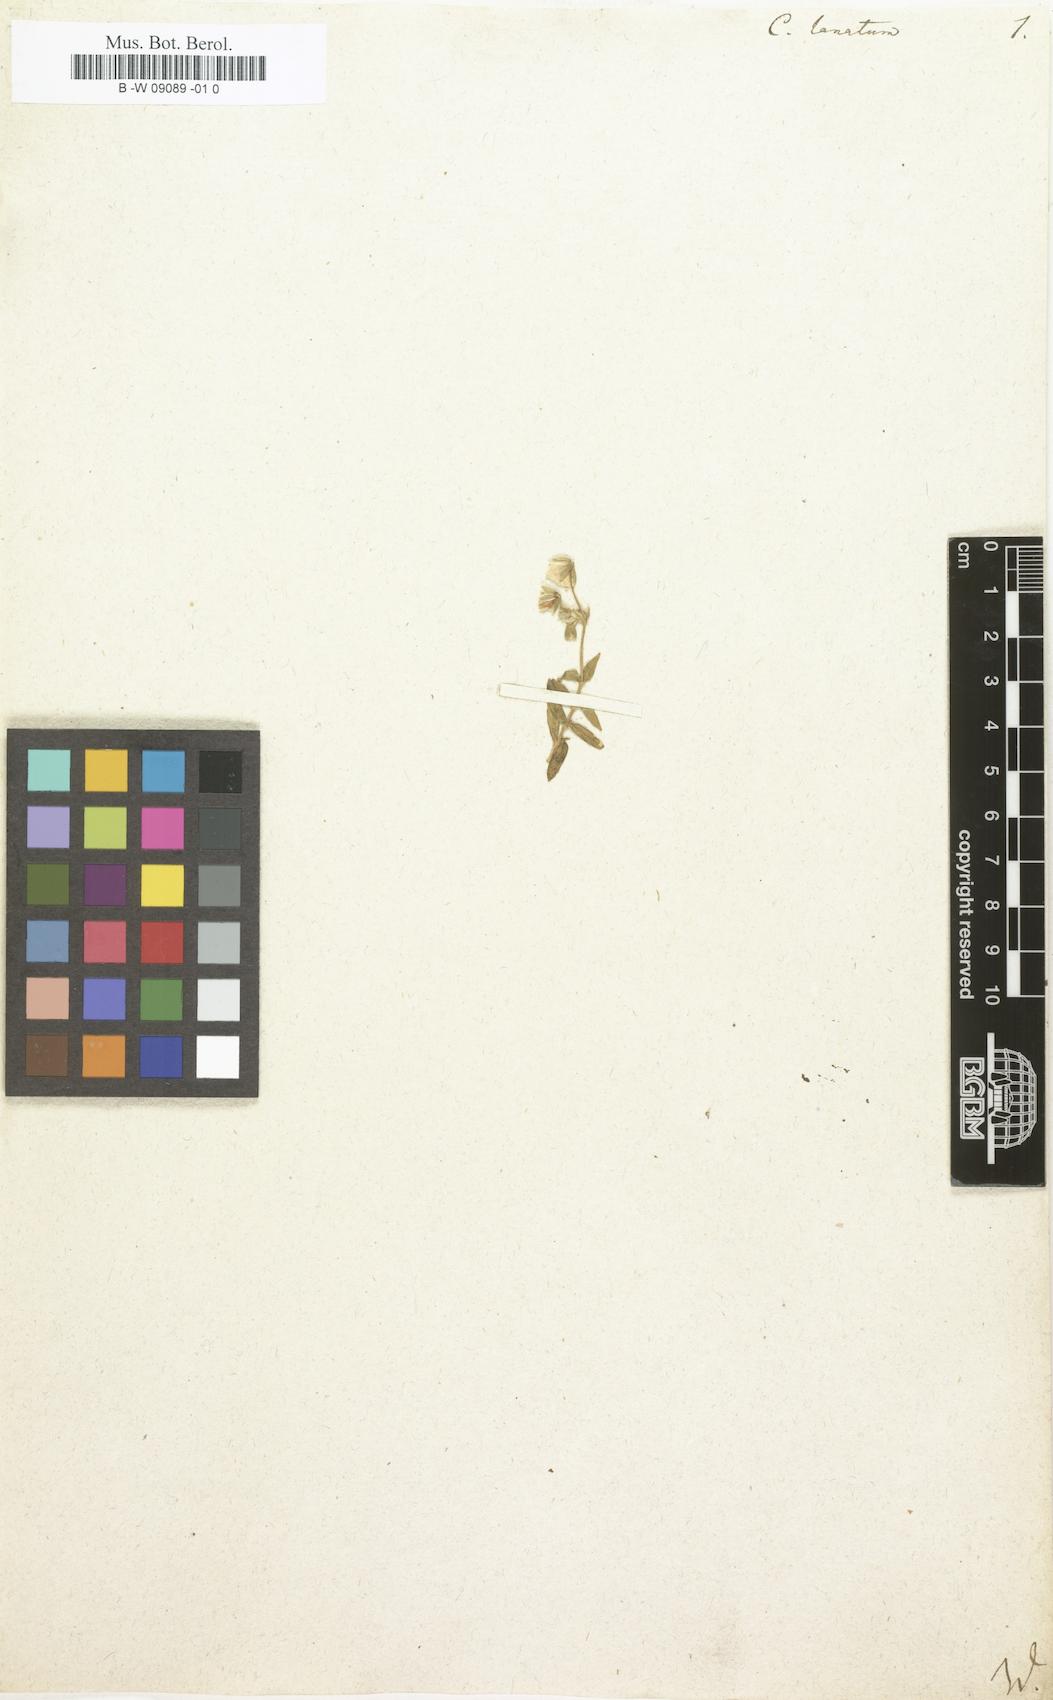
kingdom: Plantae
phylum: Tracheophyta
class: Magnoliopsida
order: Caryophyllales
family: Caryophyllaceae
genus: Cerastium
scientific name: Cerastium alpinum
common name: Alpine mouse-ear
